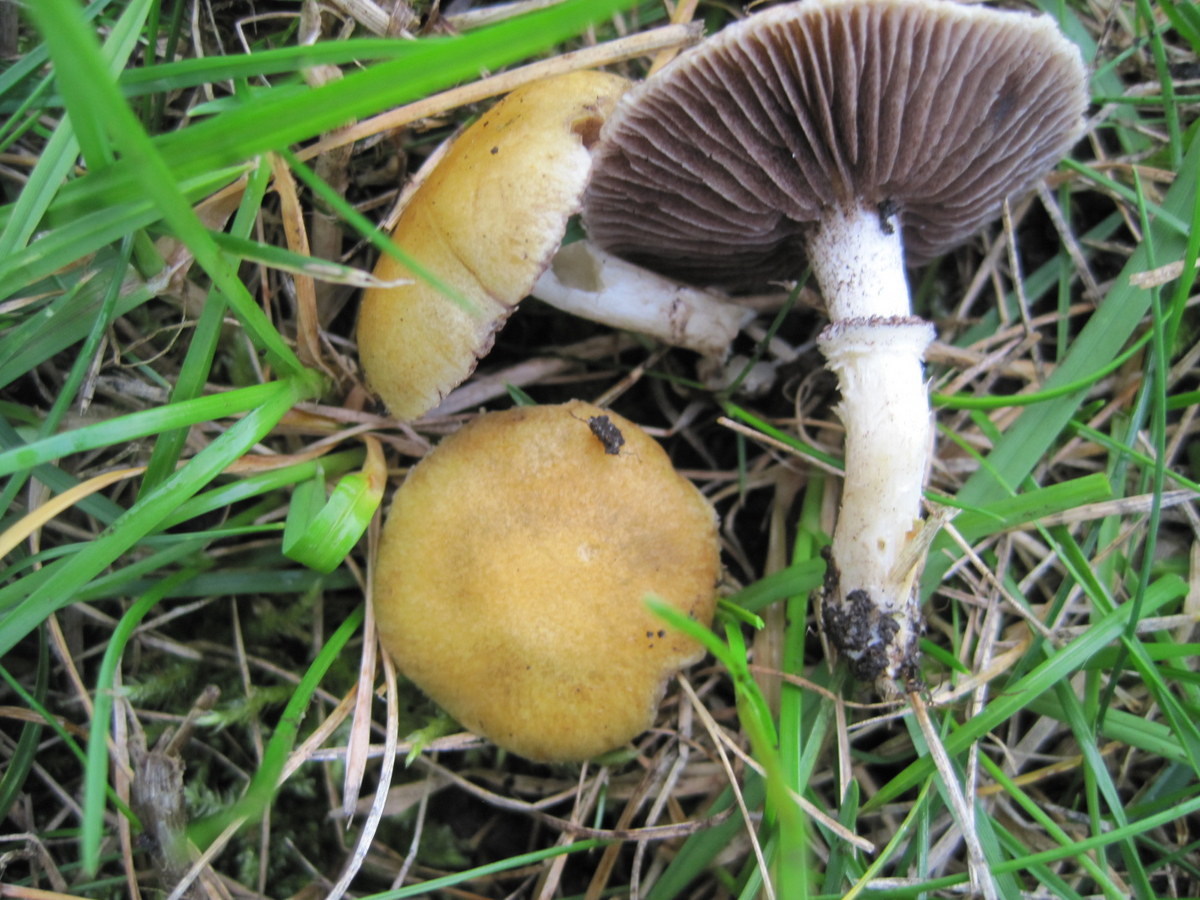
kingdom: Fungi
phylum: Basidiomycota
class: Agaricomycetes
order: Agaricales
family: Hymenogastraceae
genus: Psilocybe
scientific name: Psilocybe coronilla
